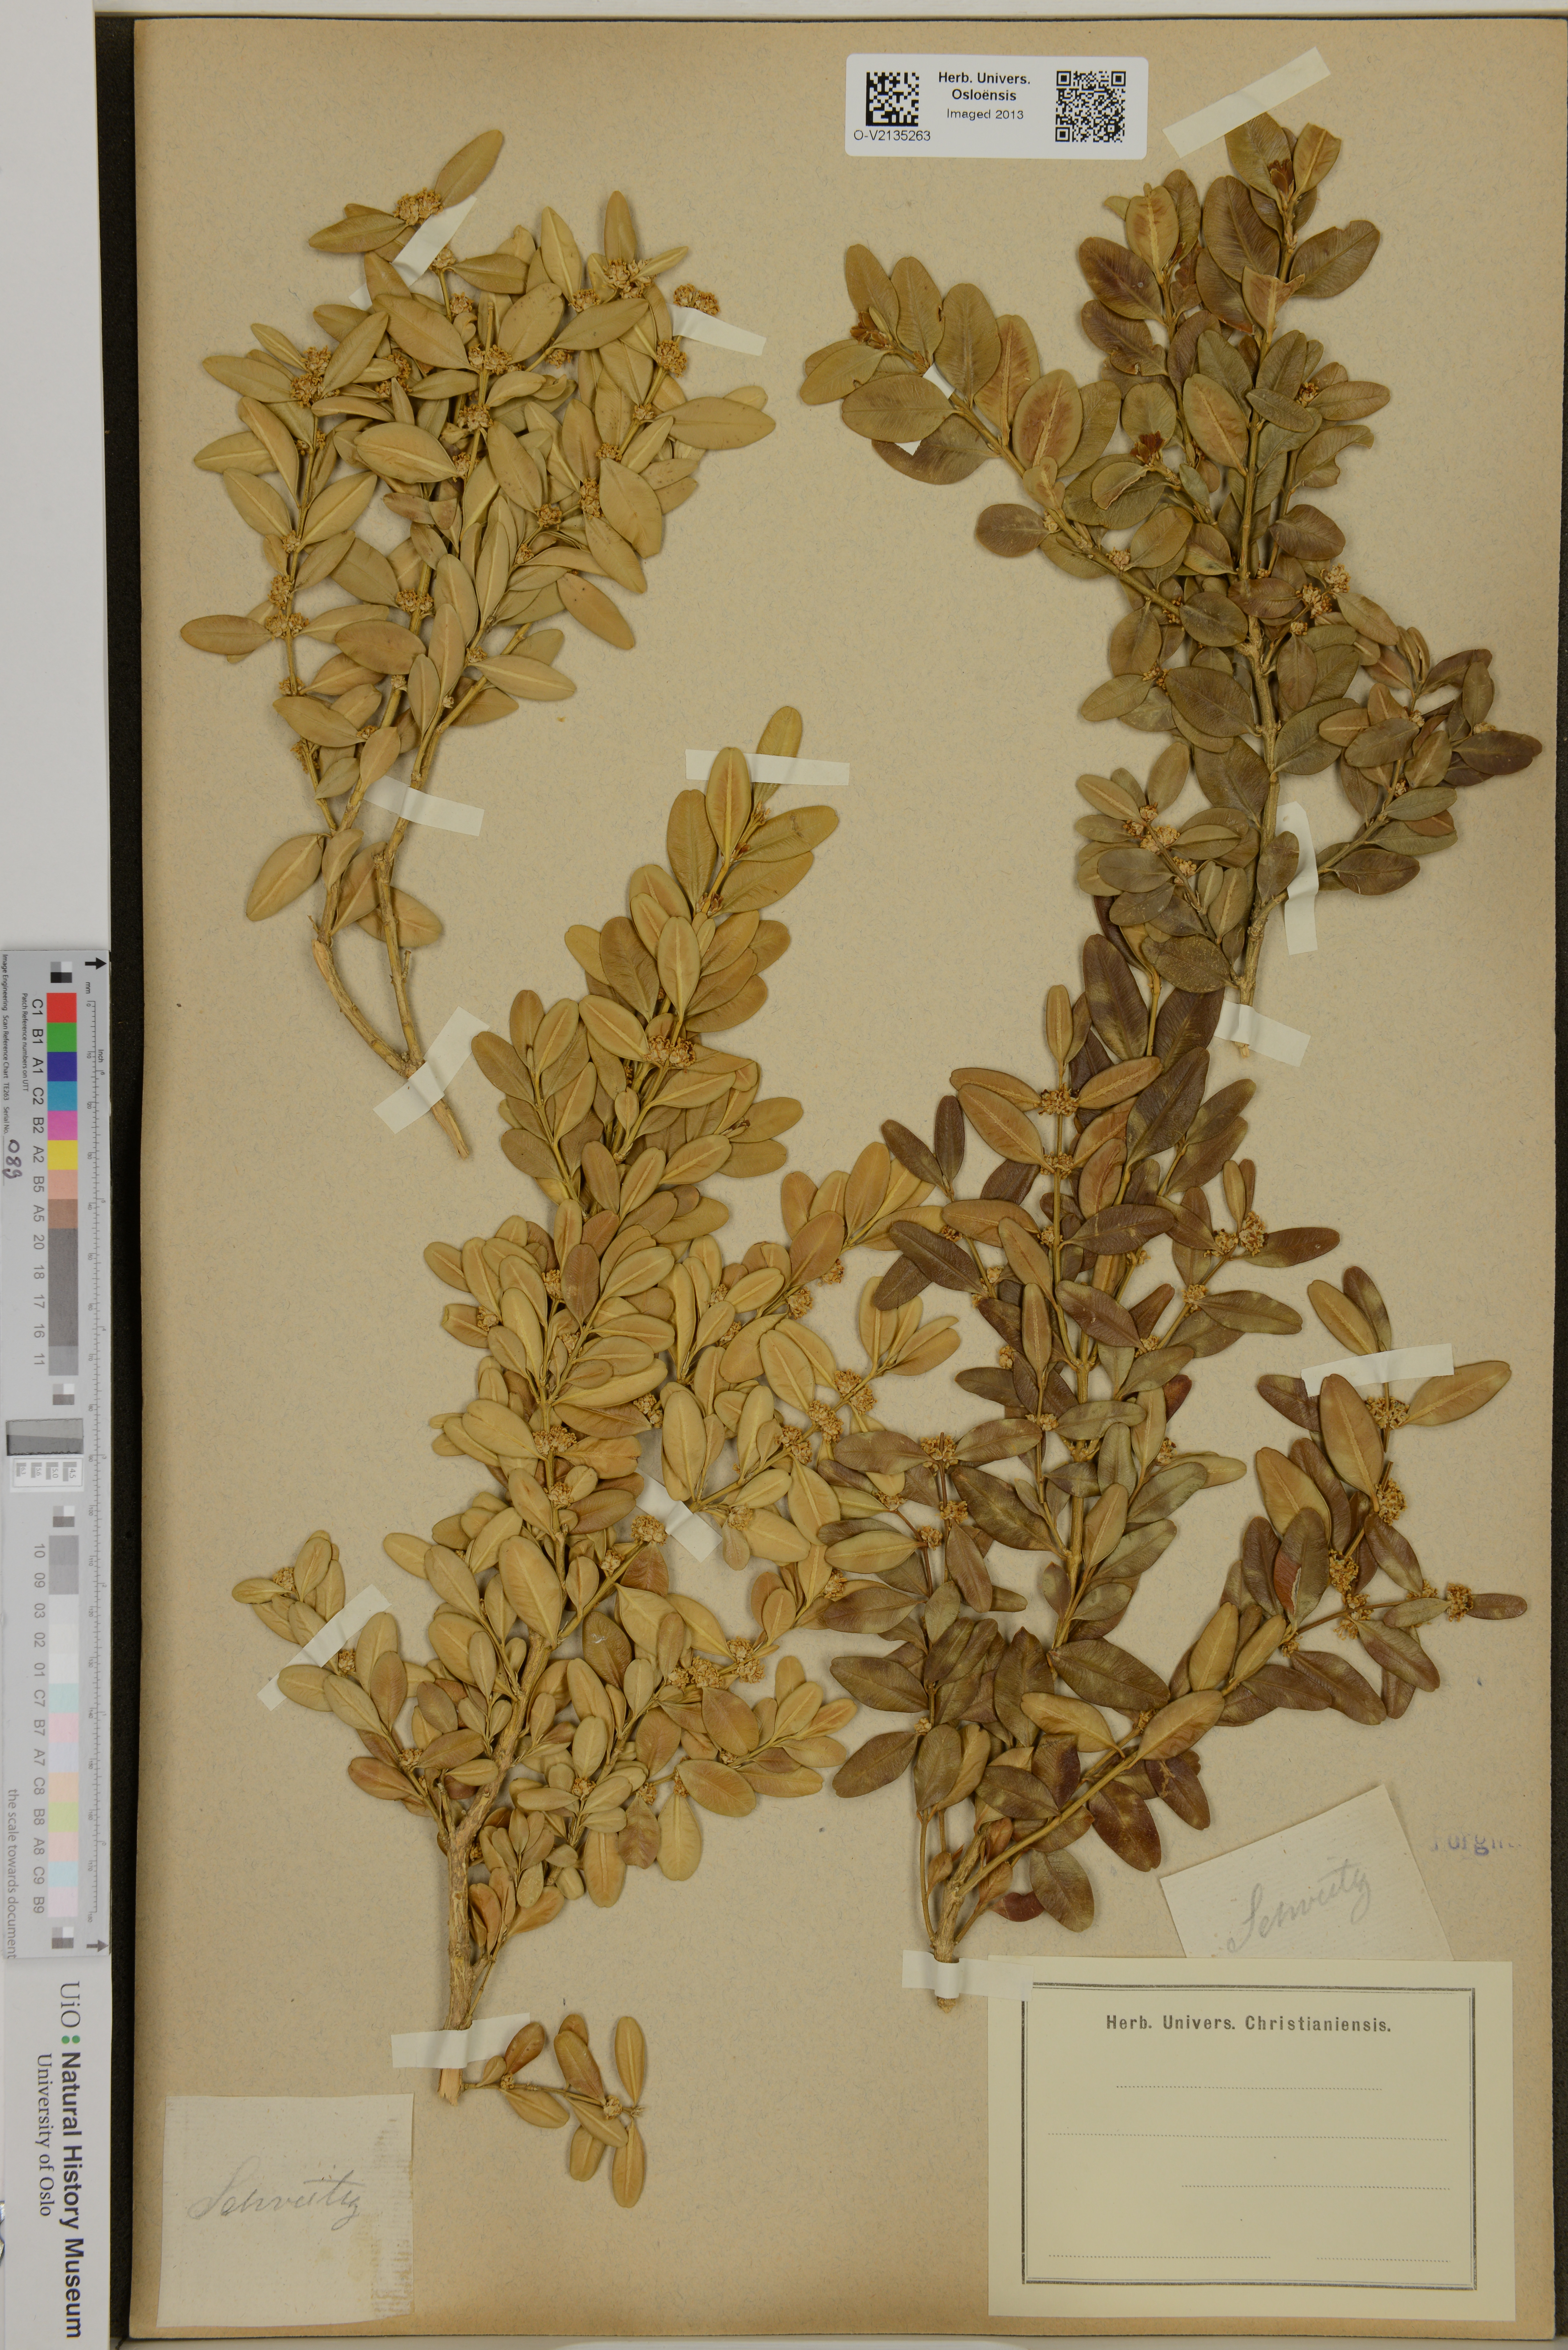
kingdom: Plantae
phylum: Tracheophyta
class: Magnoliopsida
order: Buxales
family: Buxaceae
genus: Buxus
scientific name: Buxus
